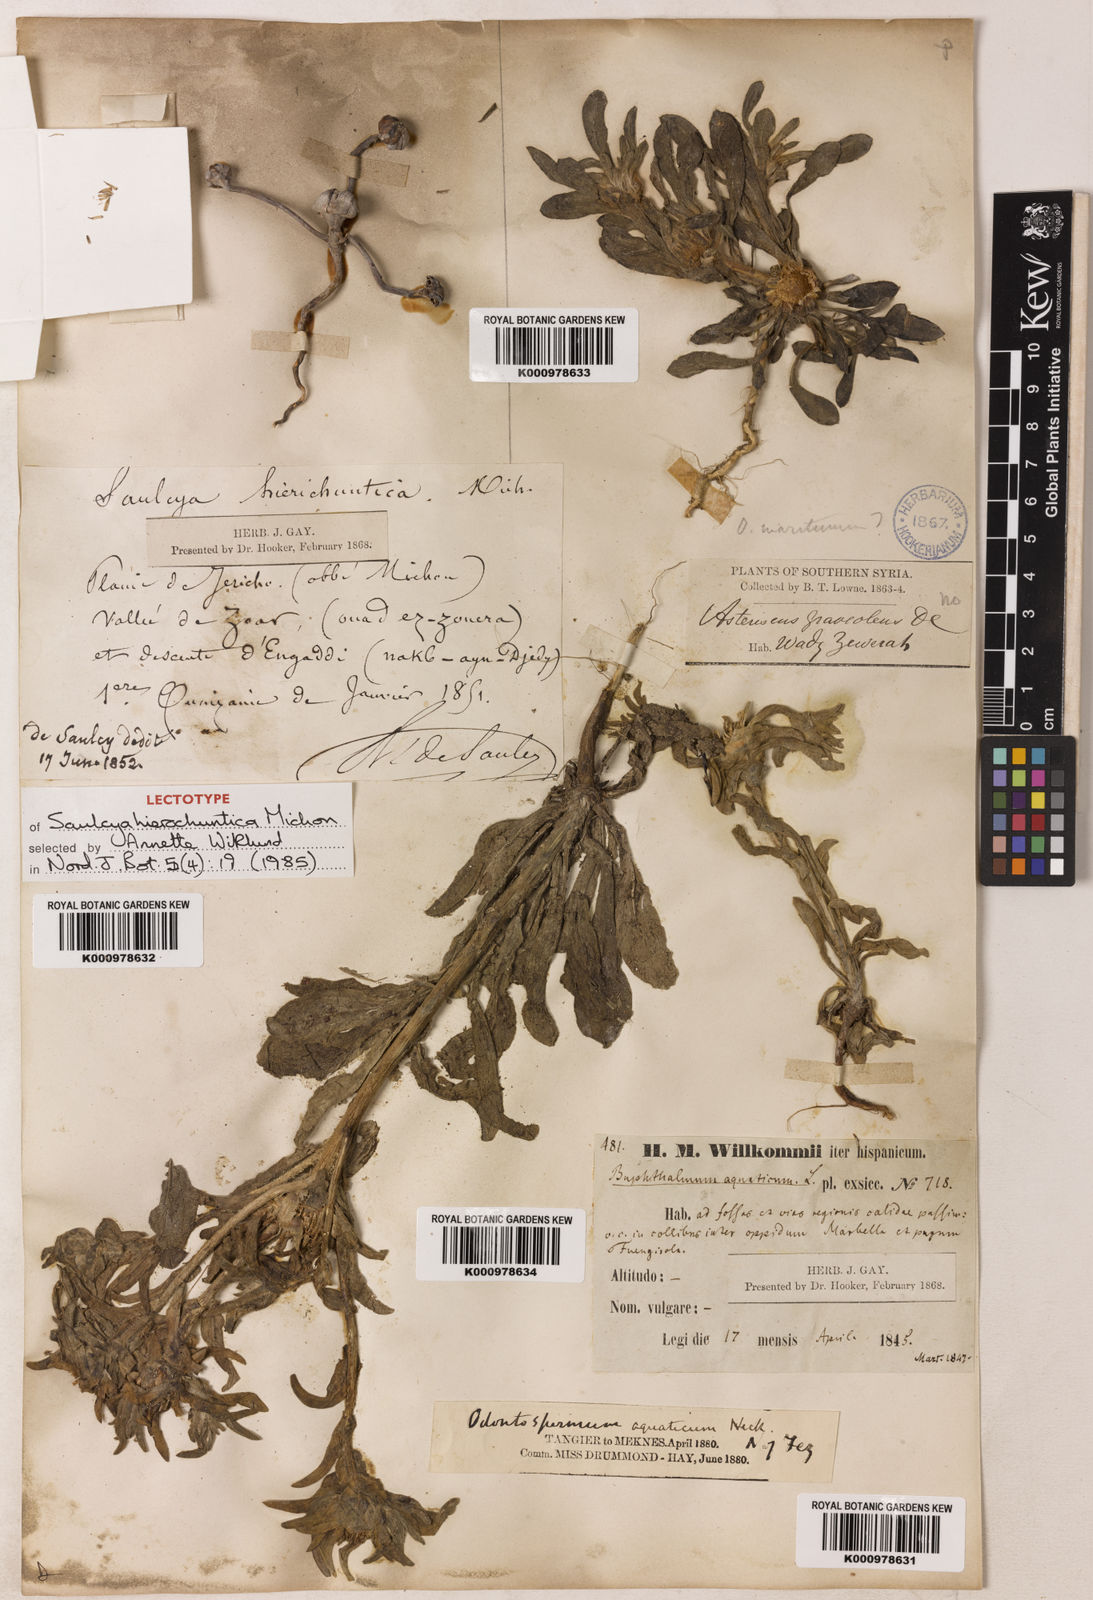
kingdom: Plantae
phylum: Tracheophyta
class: Magnoliopsida
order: Asterales
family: Asteraceae
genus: Pallenis
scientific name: Pallenis hierochuntica
